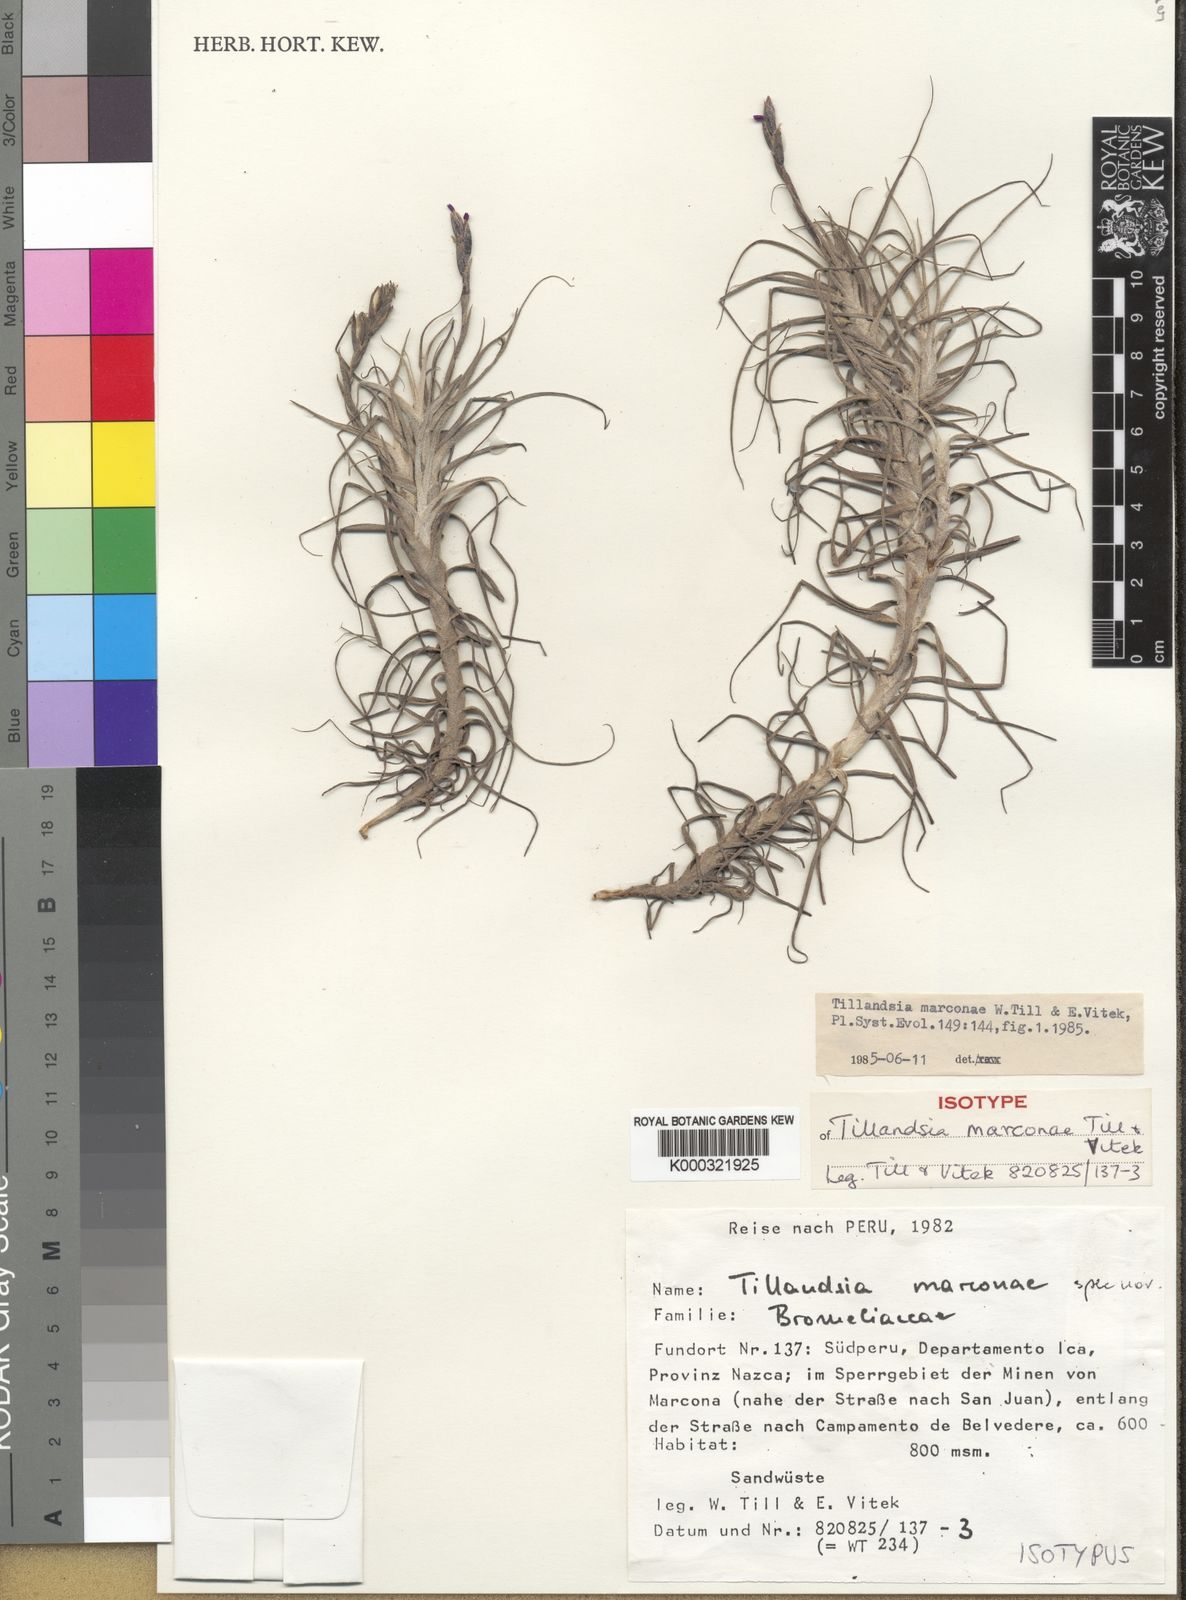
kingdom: Plantae
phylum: Tracheophyta
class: Liliopsida
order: Poales
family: Bromeliaceae
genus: Tillandsia
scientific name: Tillandsia marconae
